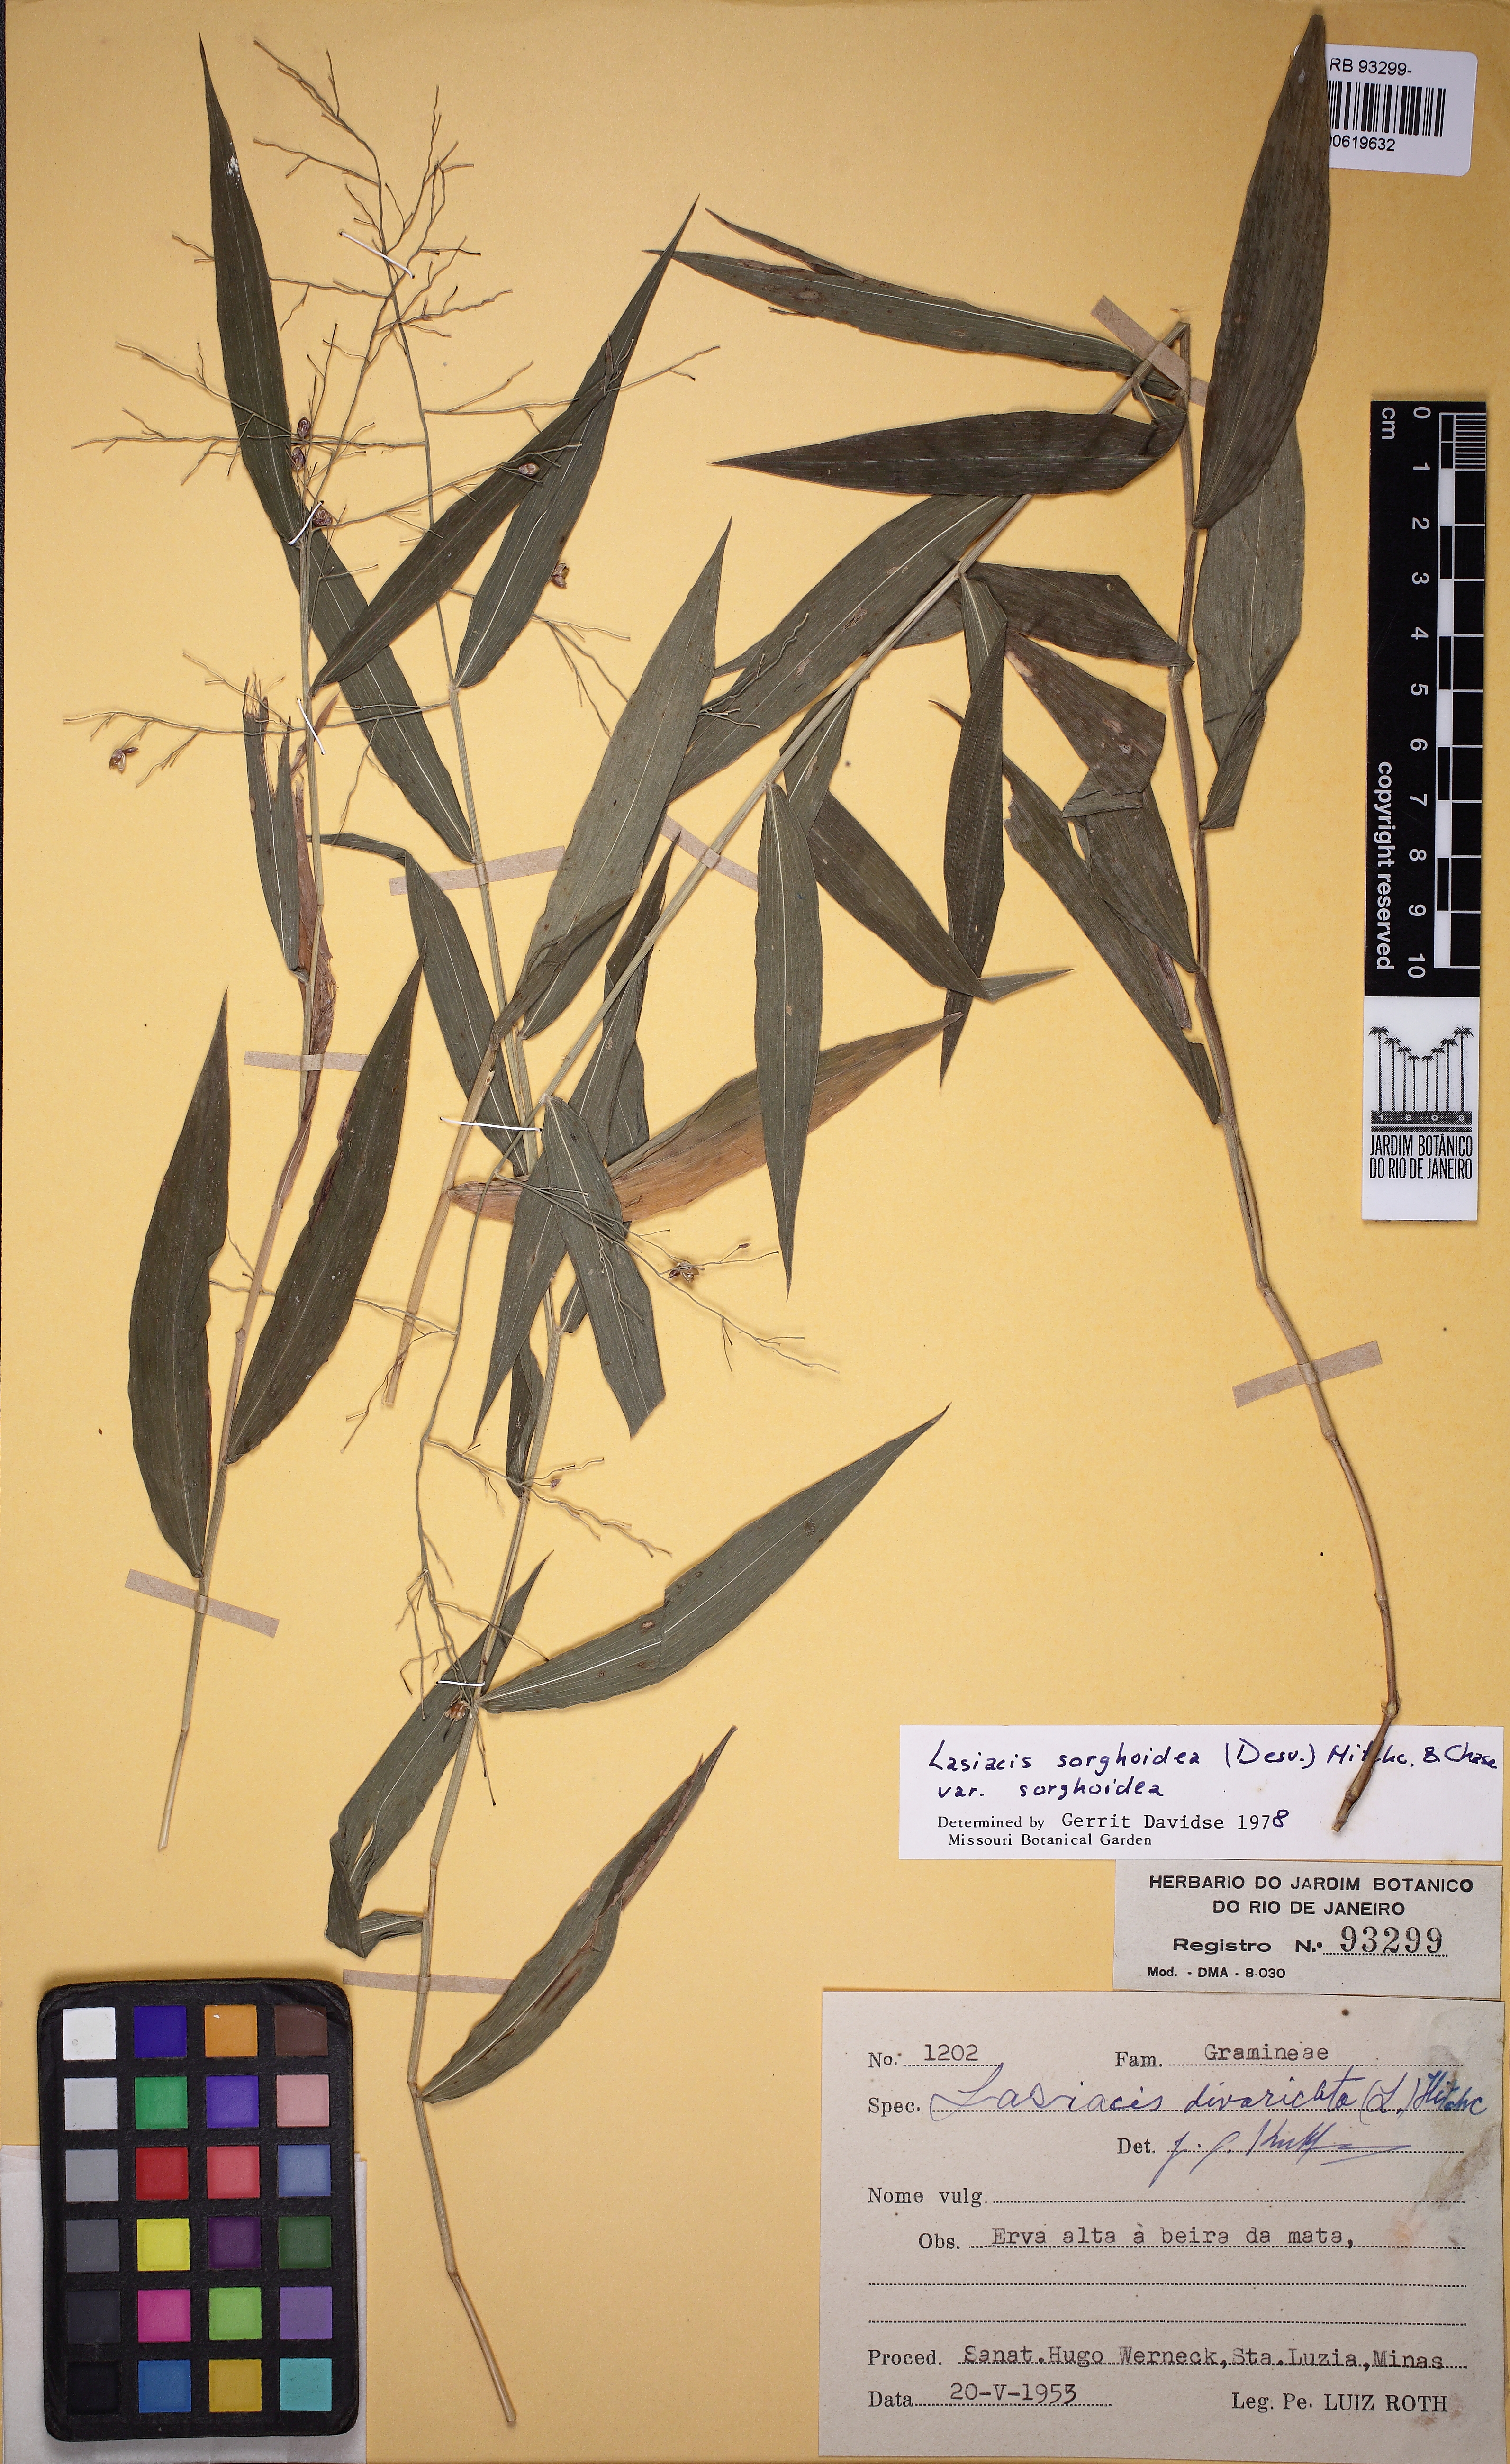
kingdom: Plantae
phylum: Tracheophyta
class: Liliopsida
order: Poales
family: Poaceae
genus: Lasiacis
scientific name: Lasiacis maculata
